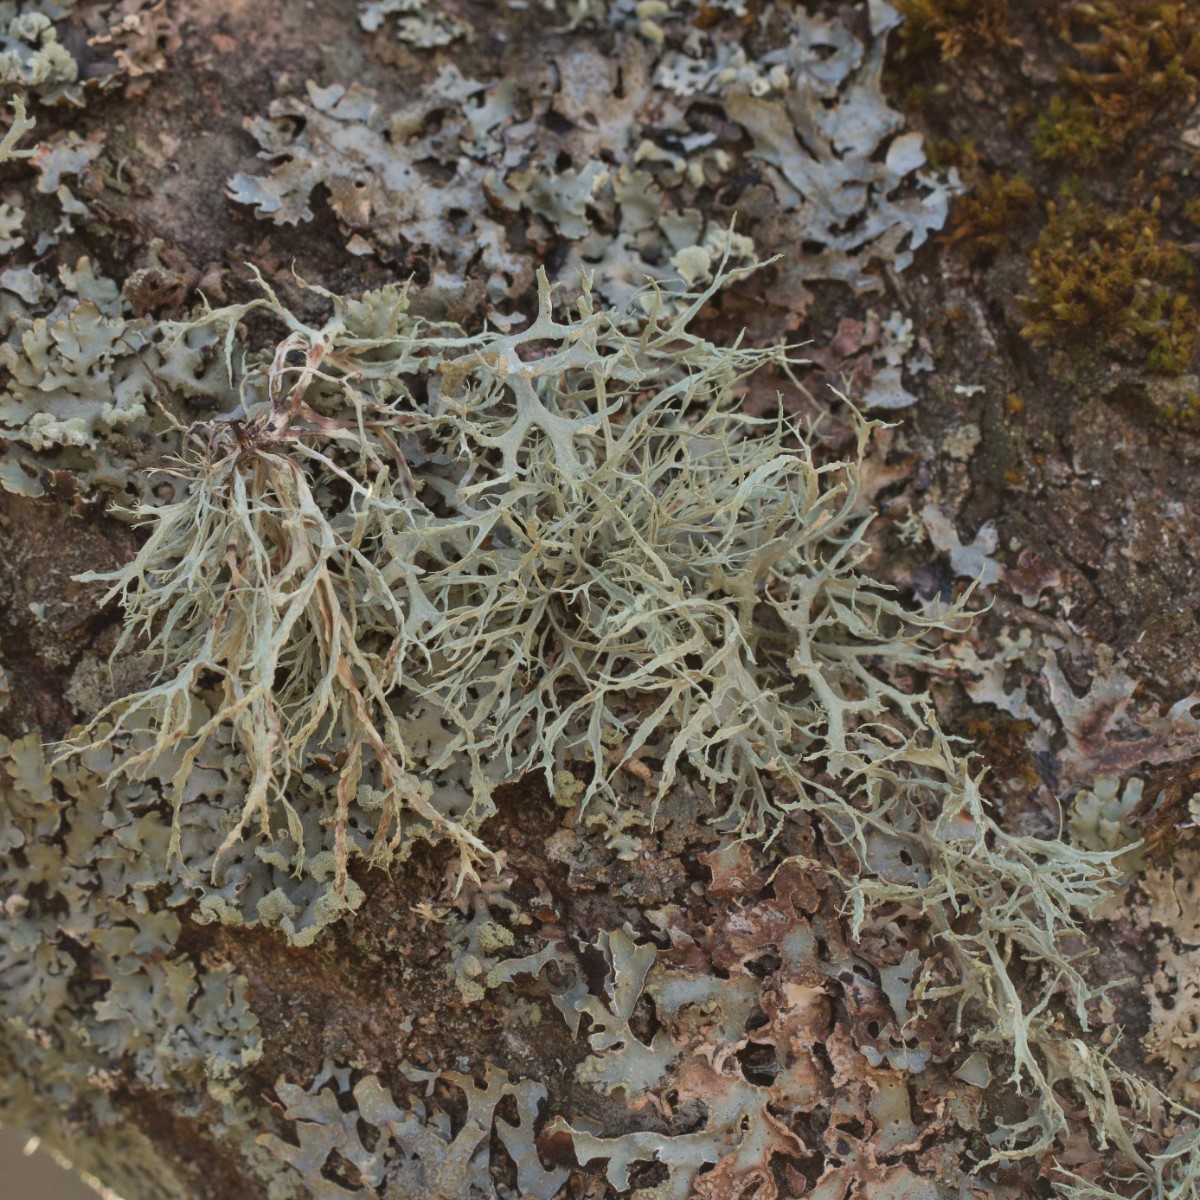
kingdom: Fungi
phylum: Ascomycota
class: Lecanoromycetes
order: Lecanorales
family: Ramalinaceae
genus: Ramalina
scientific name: Ramalina farinacea
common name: melet grenlav
